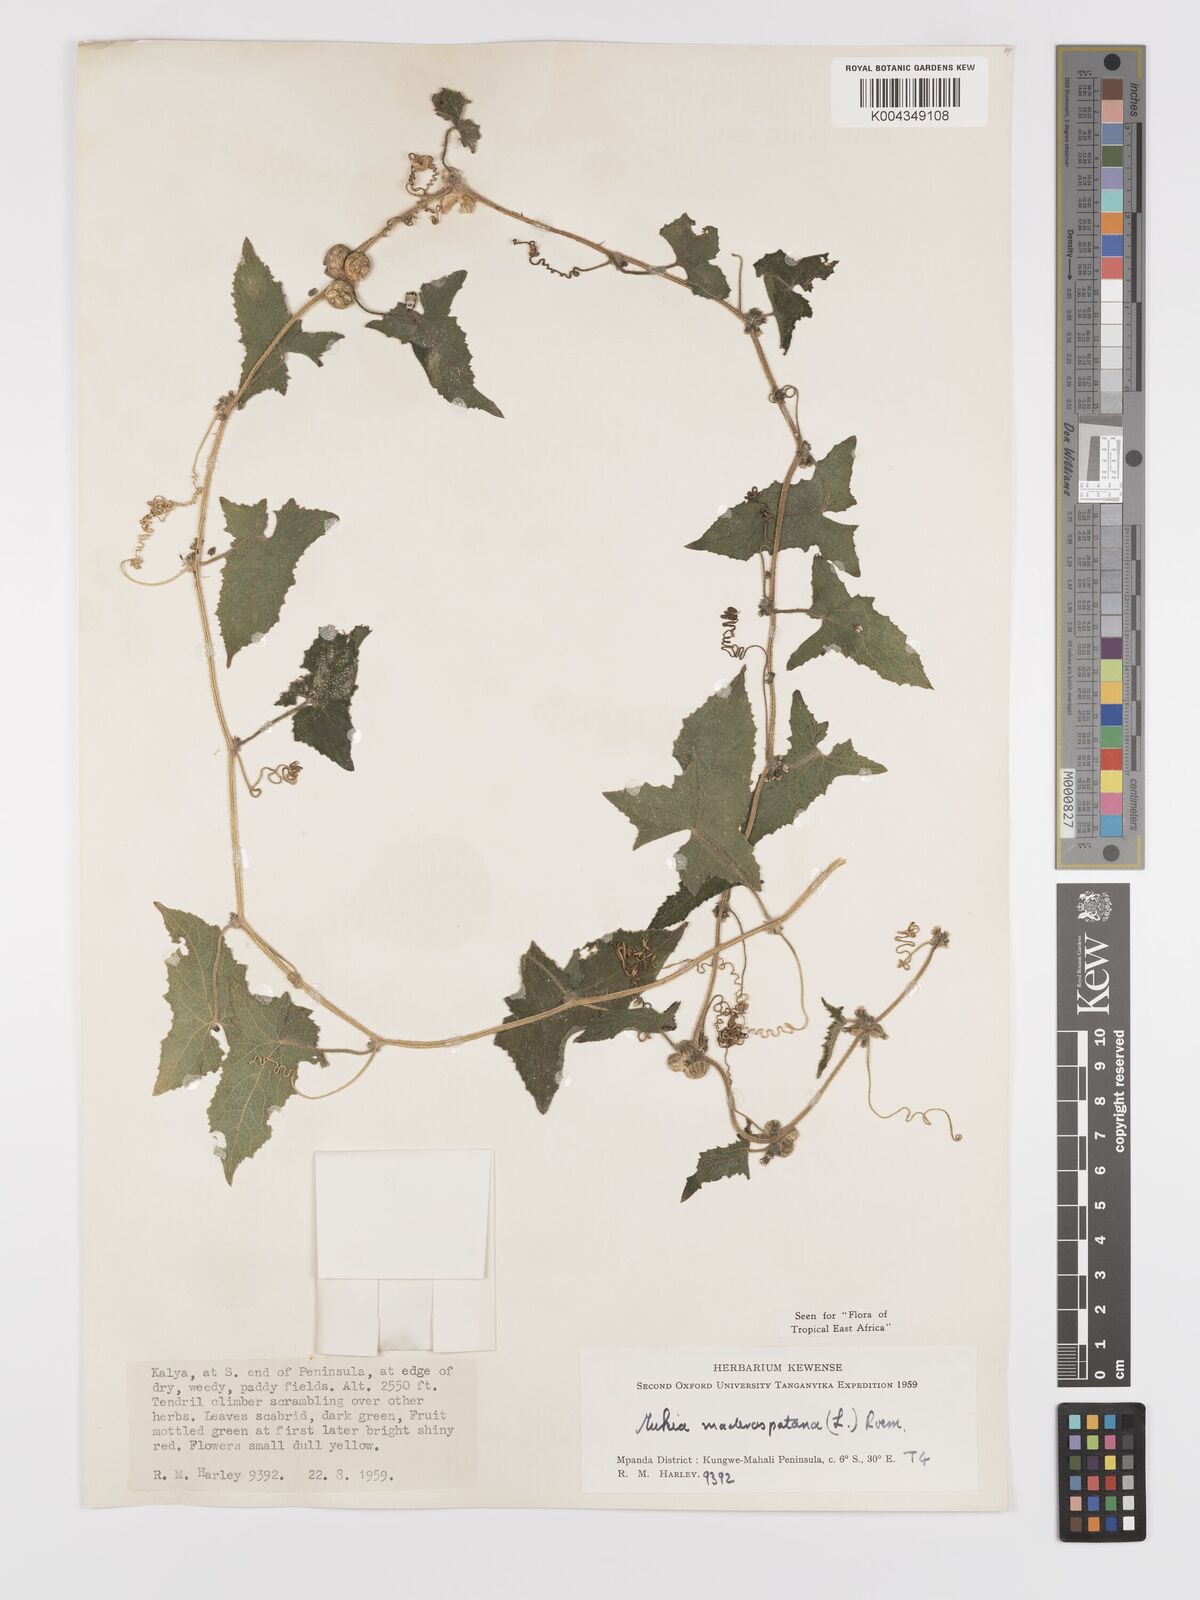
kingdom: Plantae
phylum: Tracheophyta
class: Magnoliopsida
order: Cucurbitales
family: Cucurbitaceae
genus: Cucumis
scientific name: Cucumis maderaspatanus
